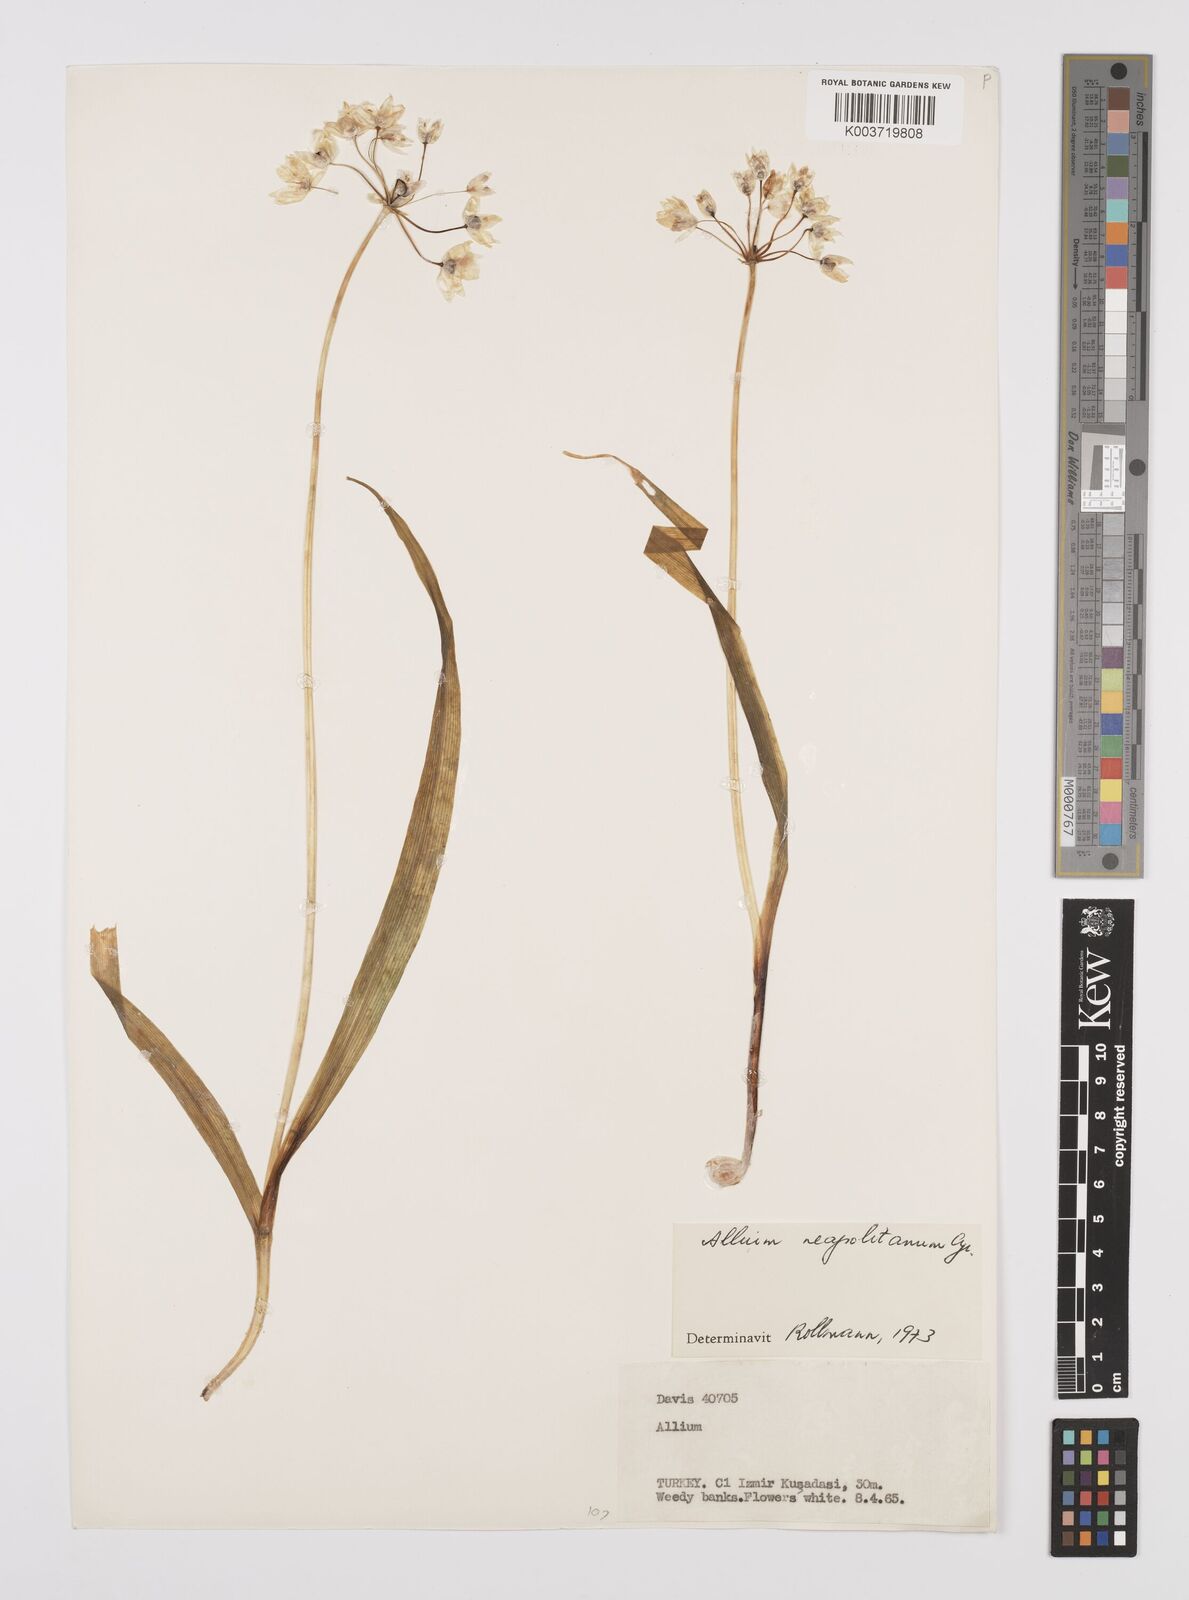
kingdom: Plantae
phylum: Tracheophyta
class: Liliopsida
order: Asparagales
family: Amaryllidaceae
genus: Allium
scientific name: Allium neapolitanum
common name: Neapolitan garlic
